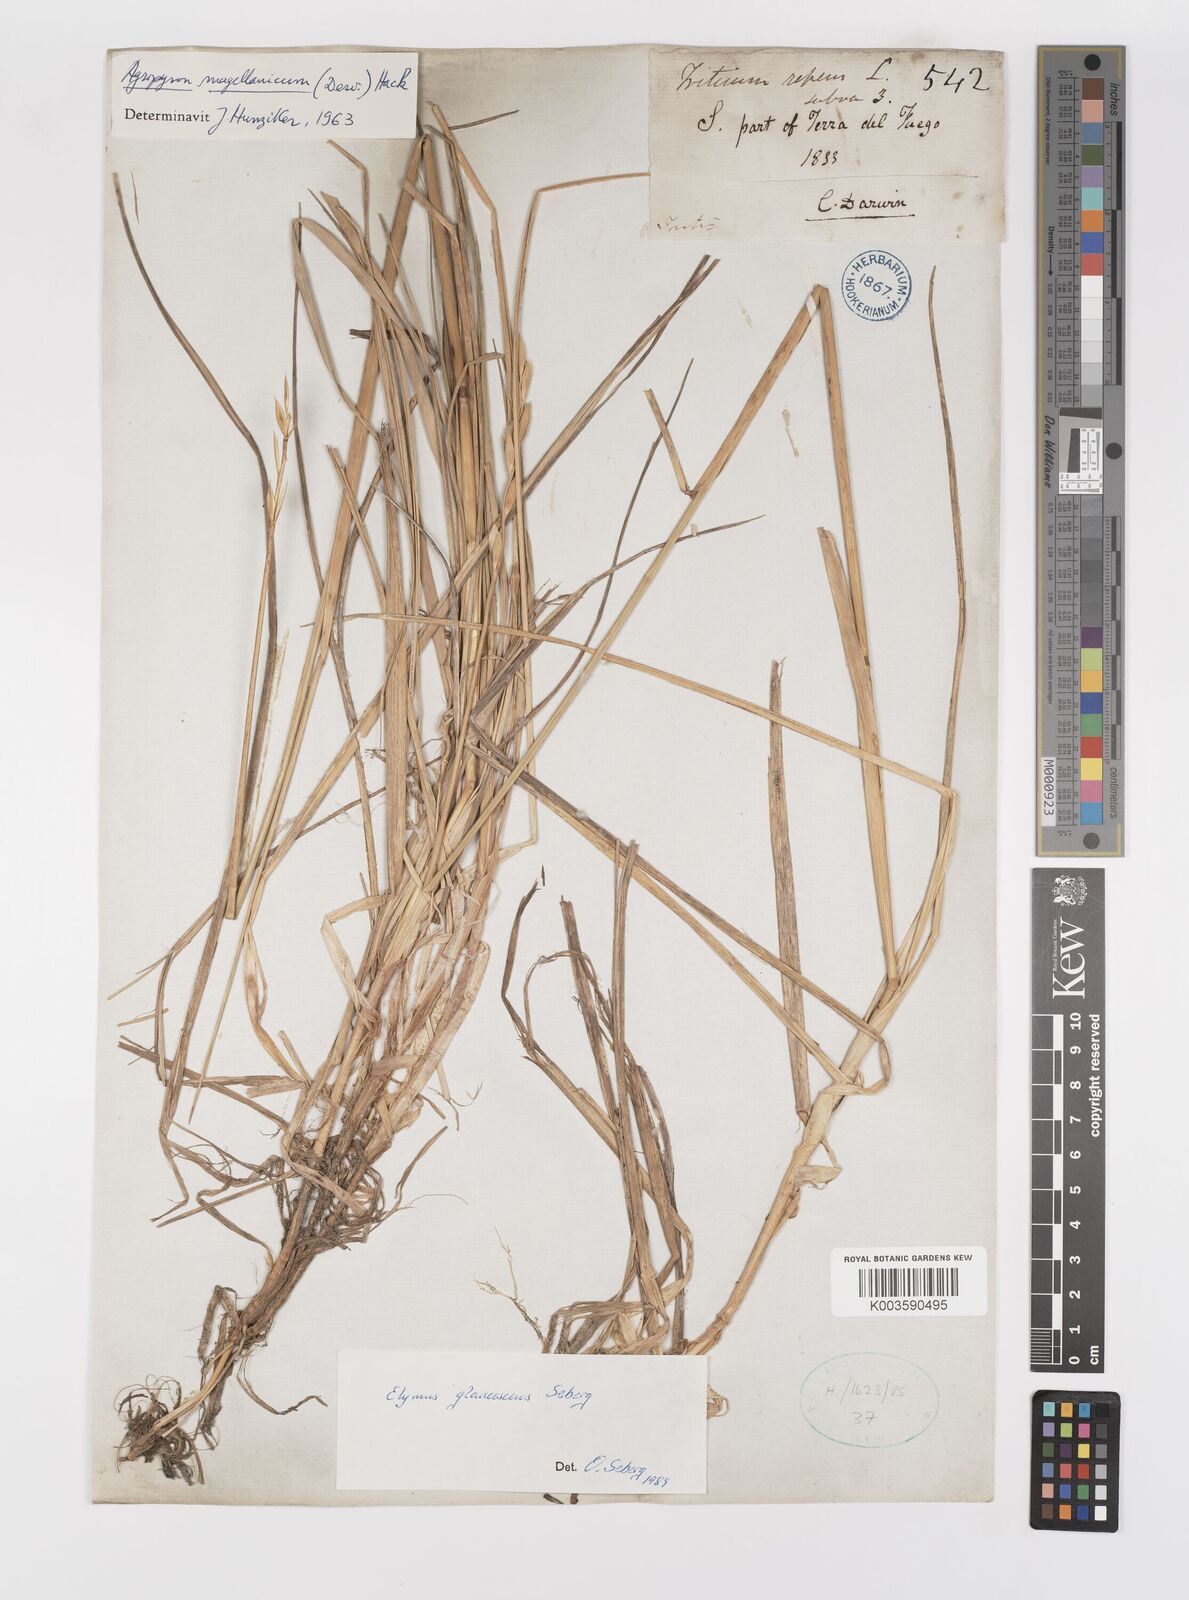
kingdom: Plantae
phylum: Tracheophyta
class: Liliopsida
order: Poales
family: Poaceae
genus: Elymus
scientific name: Elymus magellanicus
